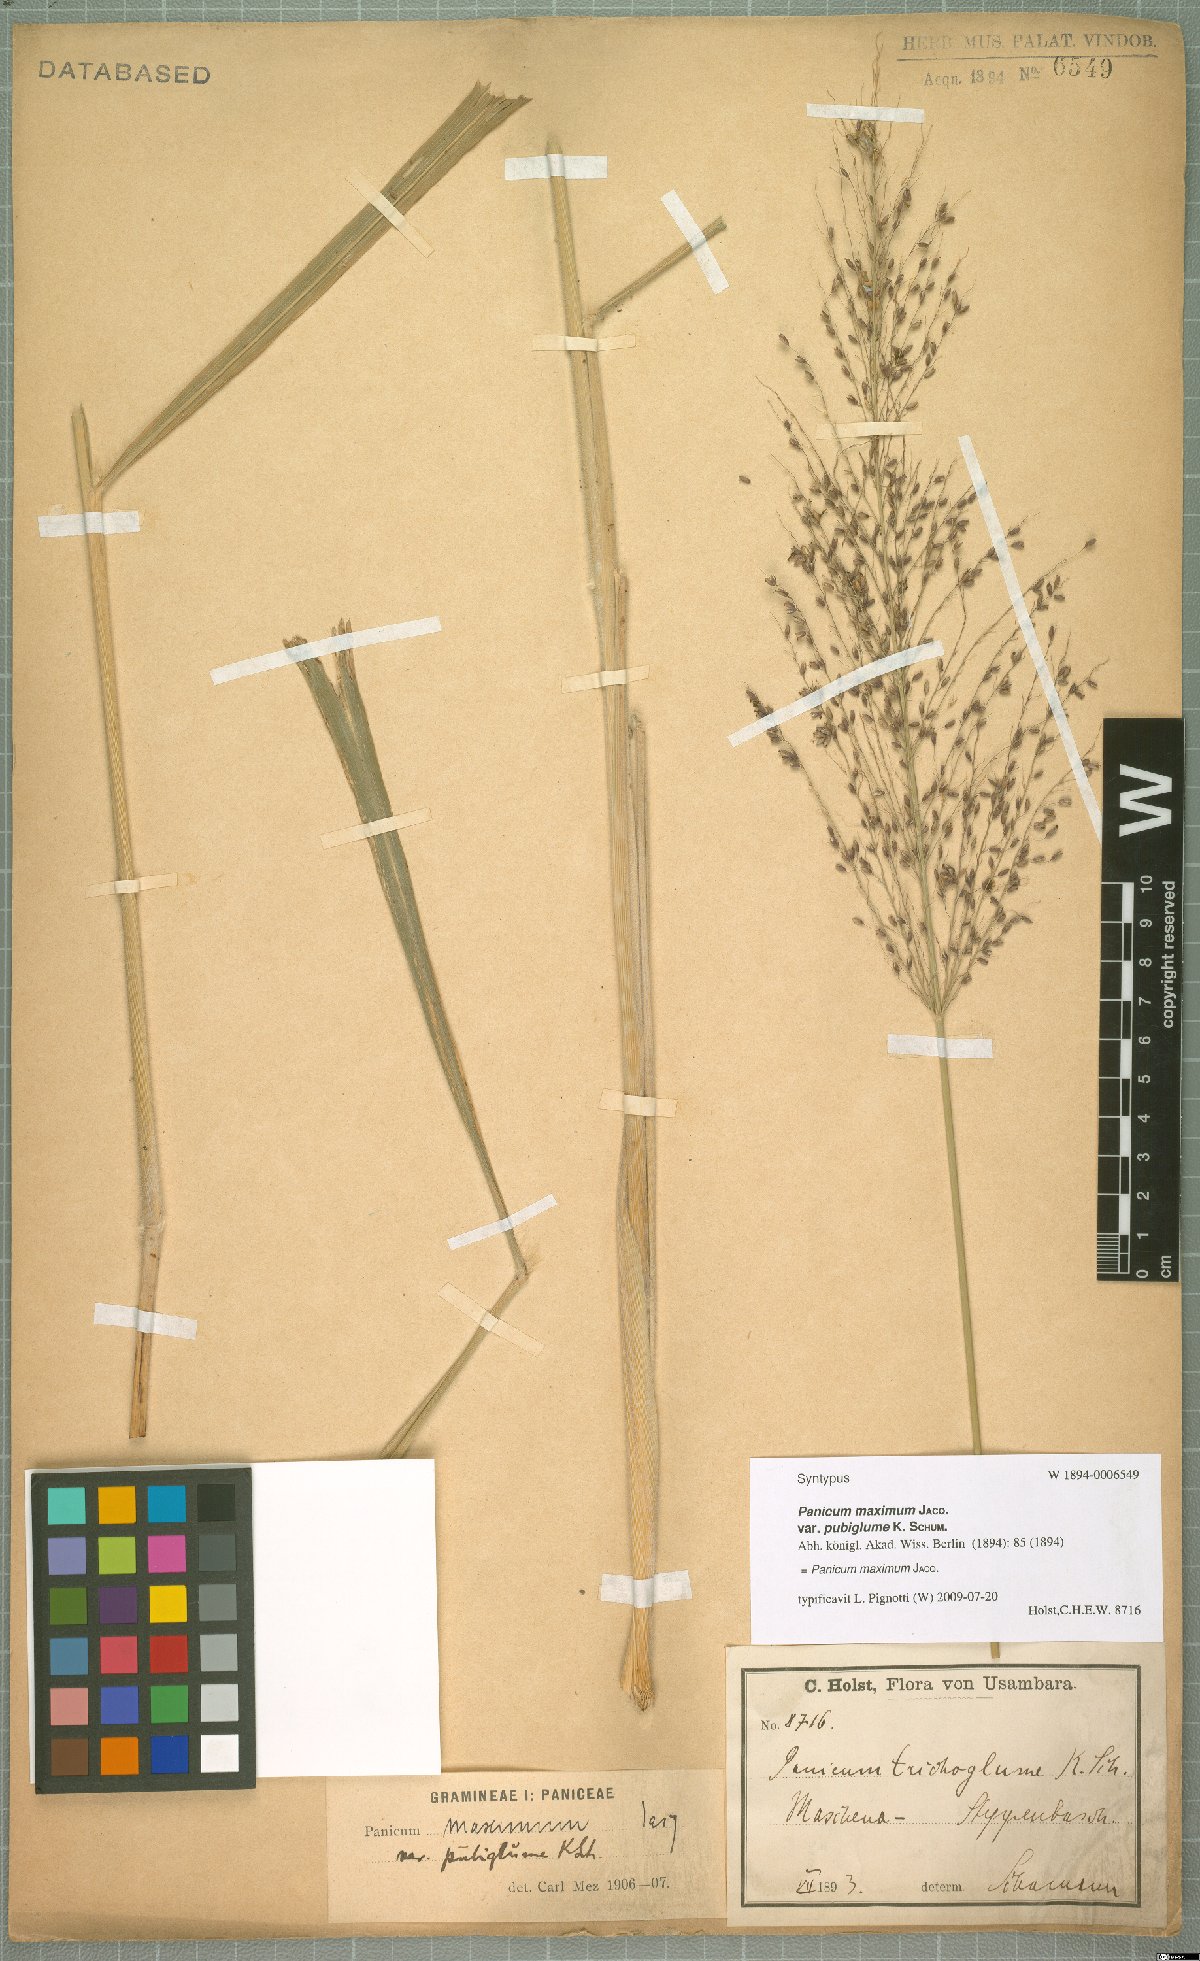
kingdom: Plantae
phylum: Tracheophyta
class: Liliopsida
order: Poales
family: Poaceae
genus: Megathyrsus
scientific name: Megathyrsus maximus
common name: Guineagrass
